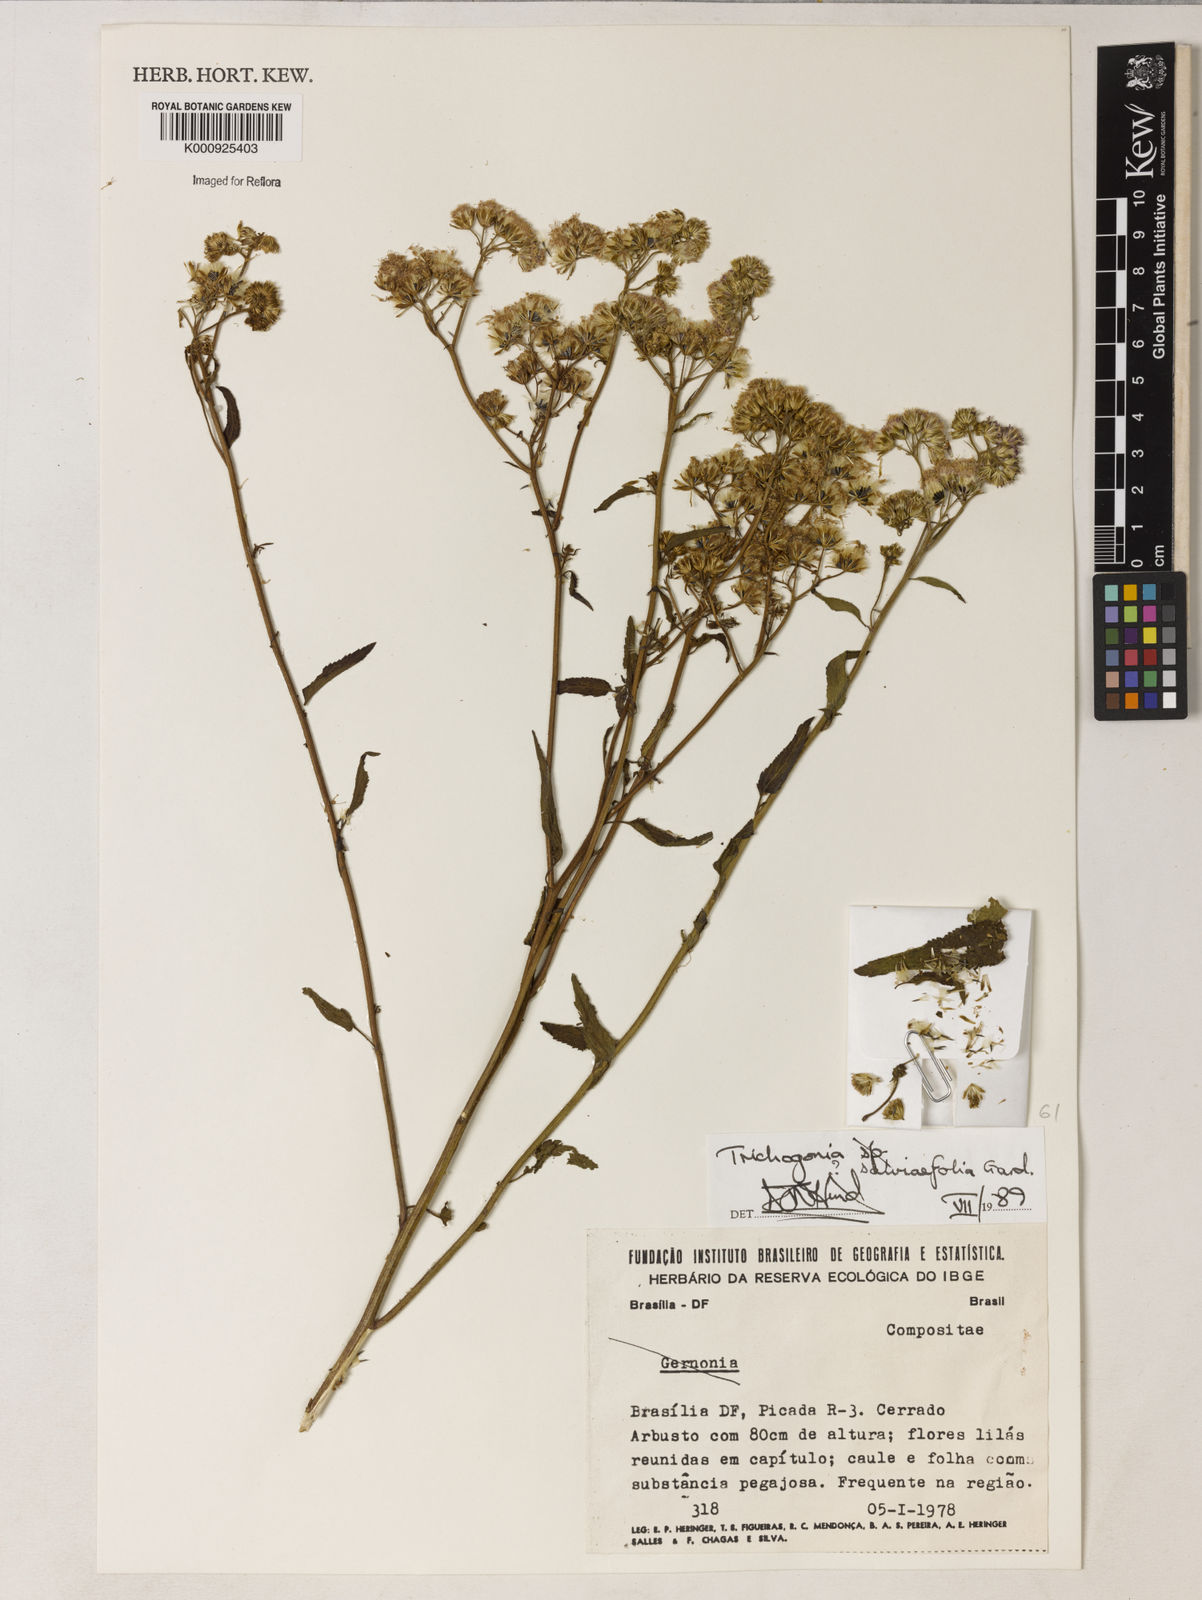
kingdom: Plantae
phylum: Tracheophyta
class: Magnoliopsida
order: Asterales
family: Asteraceae
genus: Trichogonia
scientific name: Trichogonia
